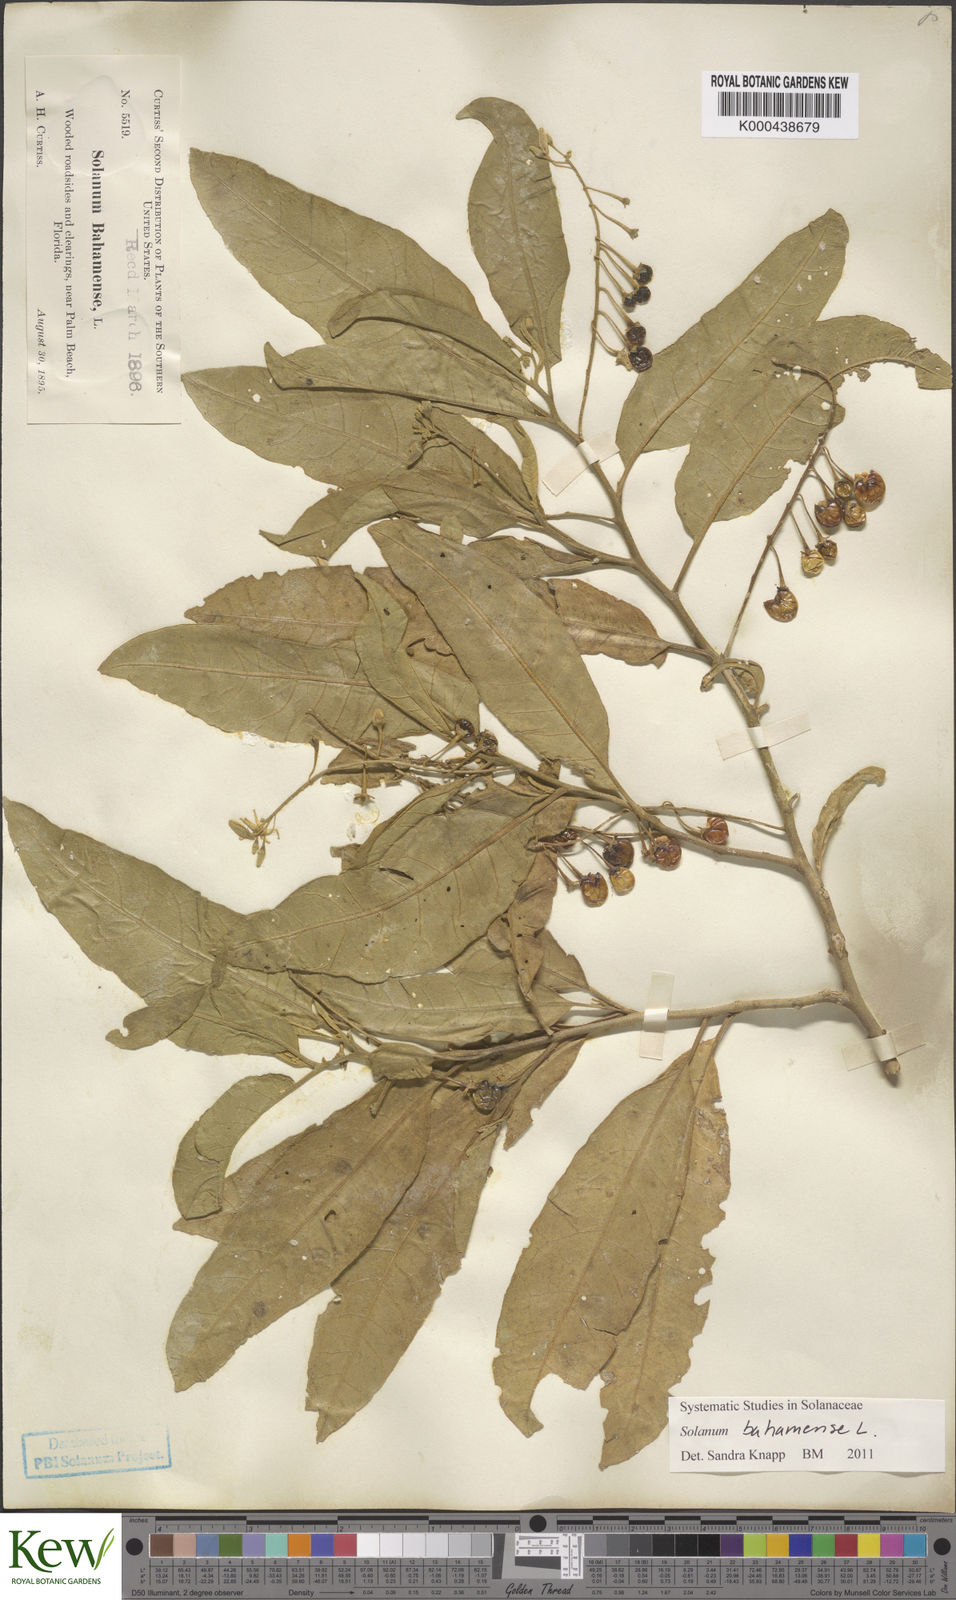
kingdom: Plantae
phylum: Tracheophyta
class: Magnoliopsida
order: Solanales
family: Solanaceae
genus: Solanum
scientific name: Solanum bahamense
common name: Canker-berry
